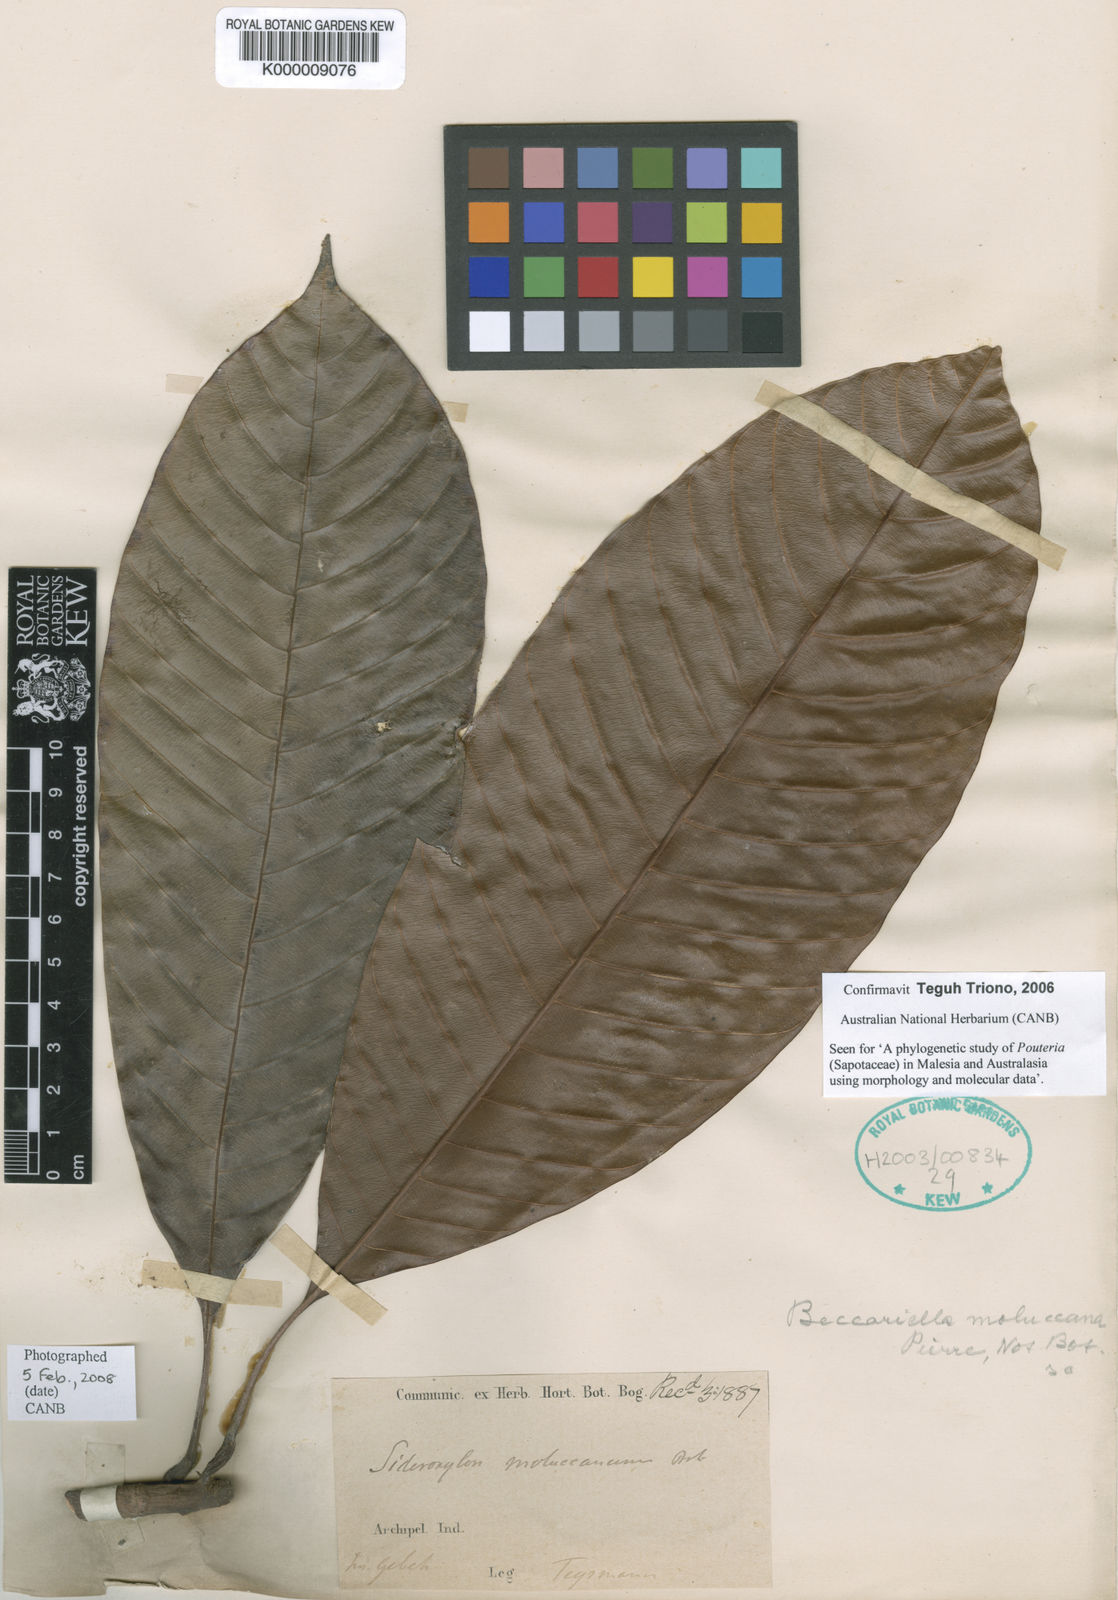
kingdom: Plantae
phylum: Tracheophyta
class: Magnoliopsida
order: Ericales
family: Sapotaceae
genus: Pleioluma
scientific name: Pleioluma moluccana
